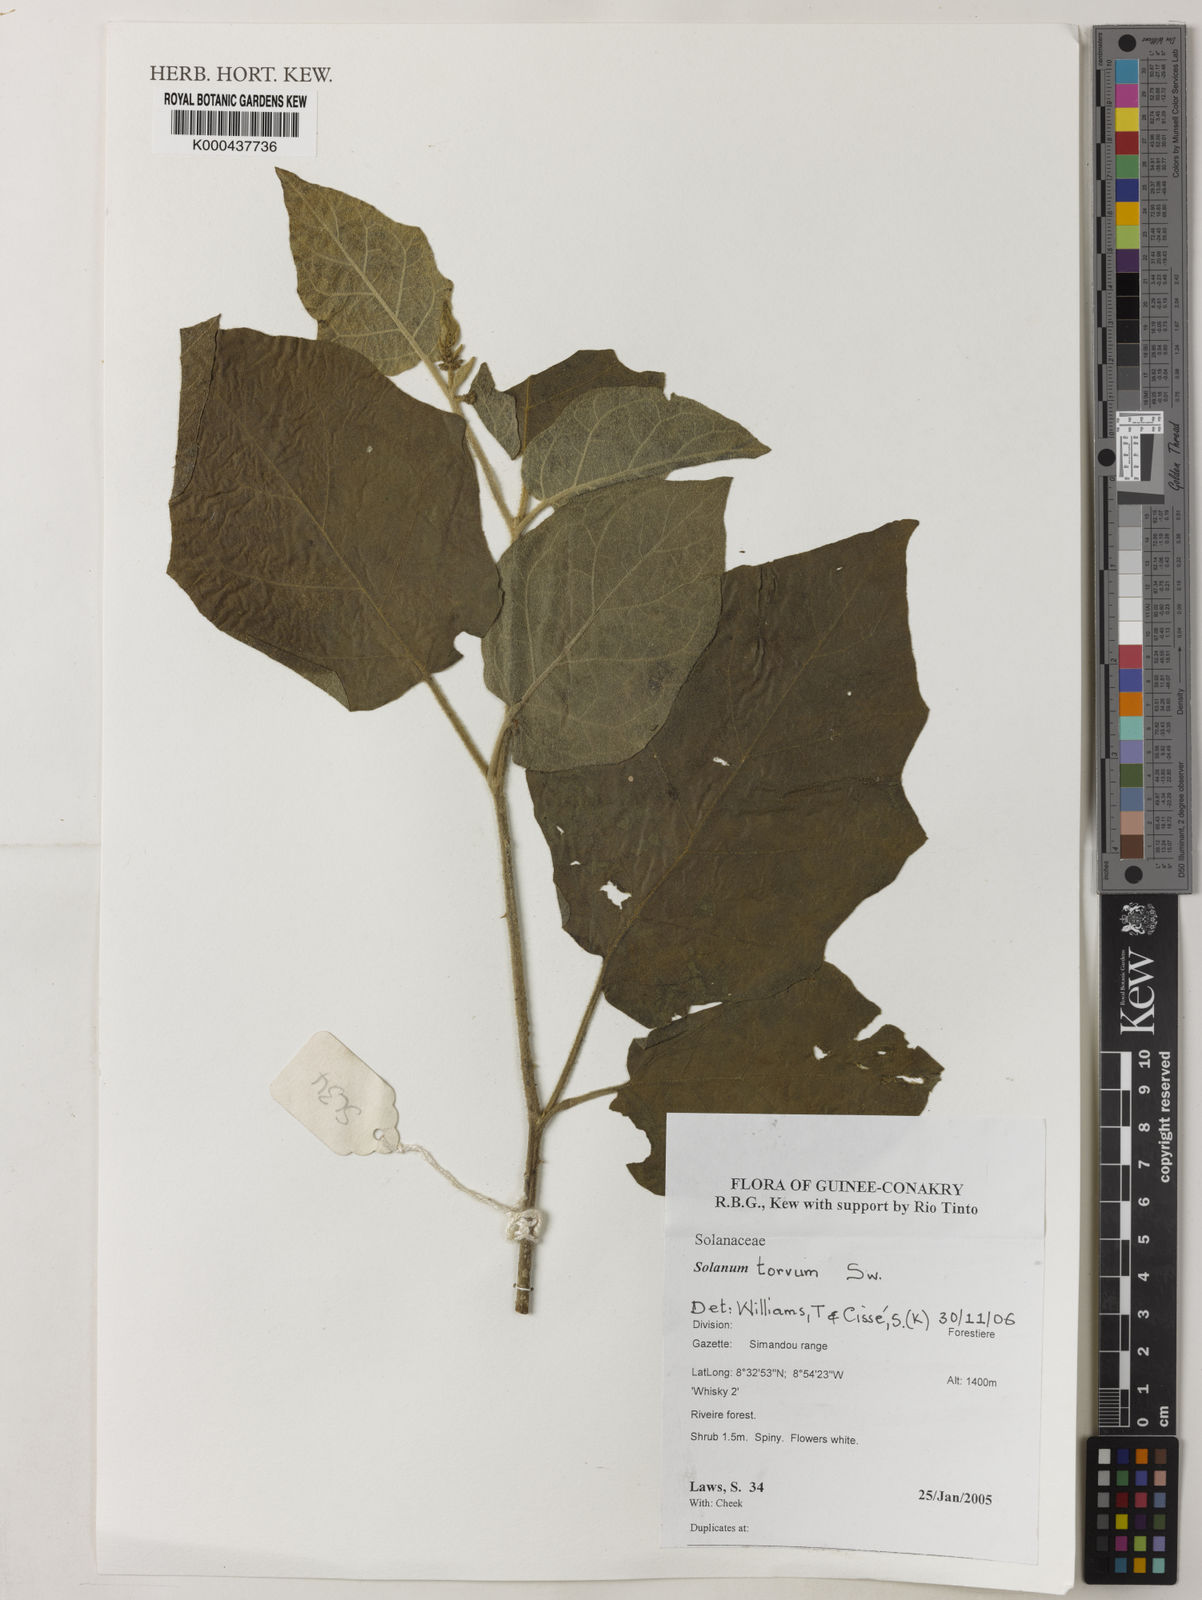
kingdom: Plantae
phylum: Tracheophyta
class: Magnoliopsida
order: Solanales
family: Solanaceae
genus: Solanum
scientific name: Solanum torvum
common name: Turkey berry
